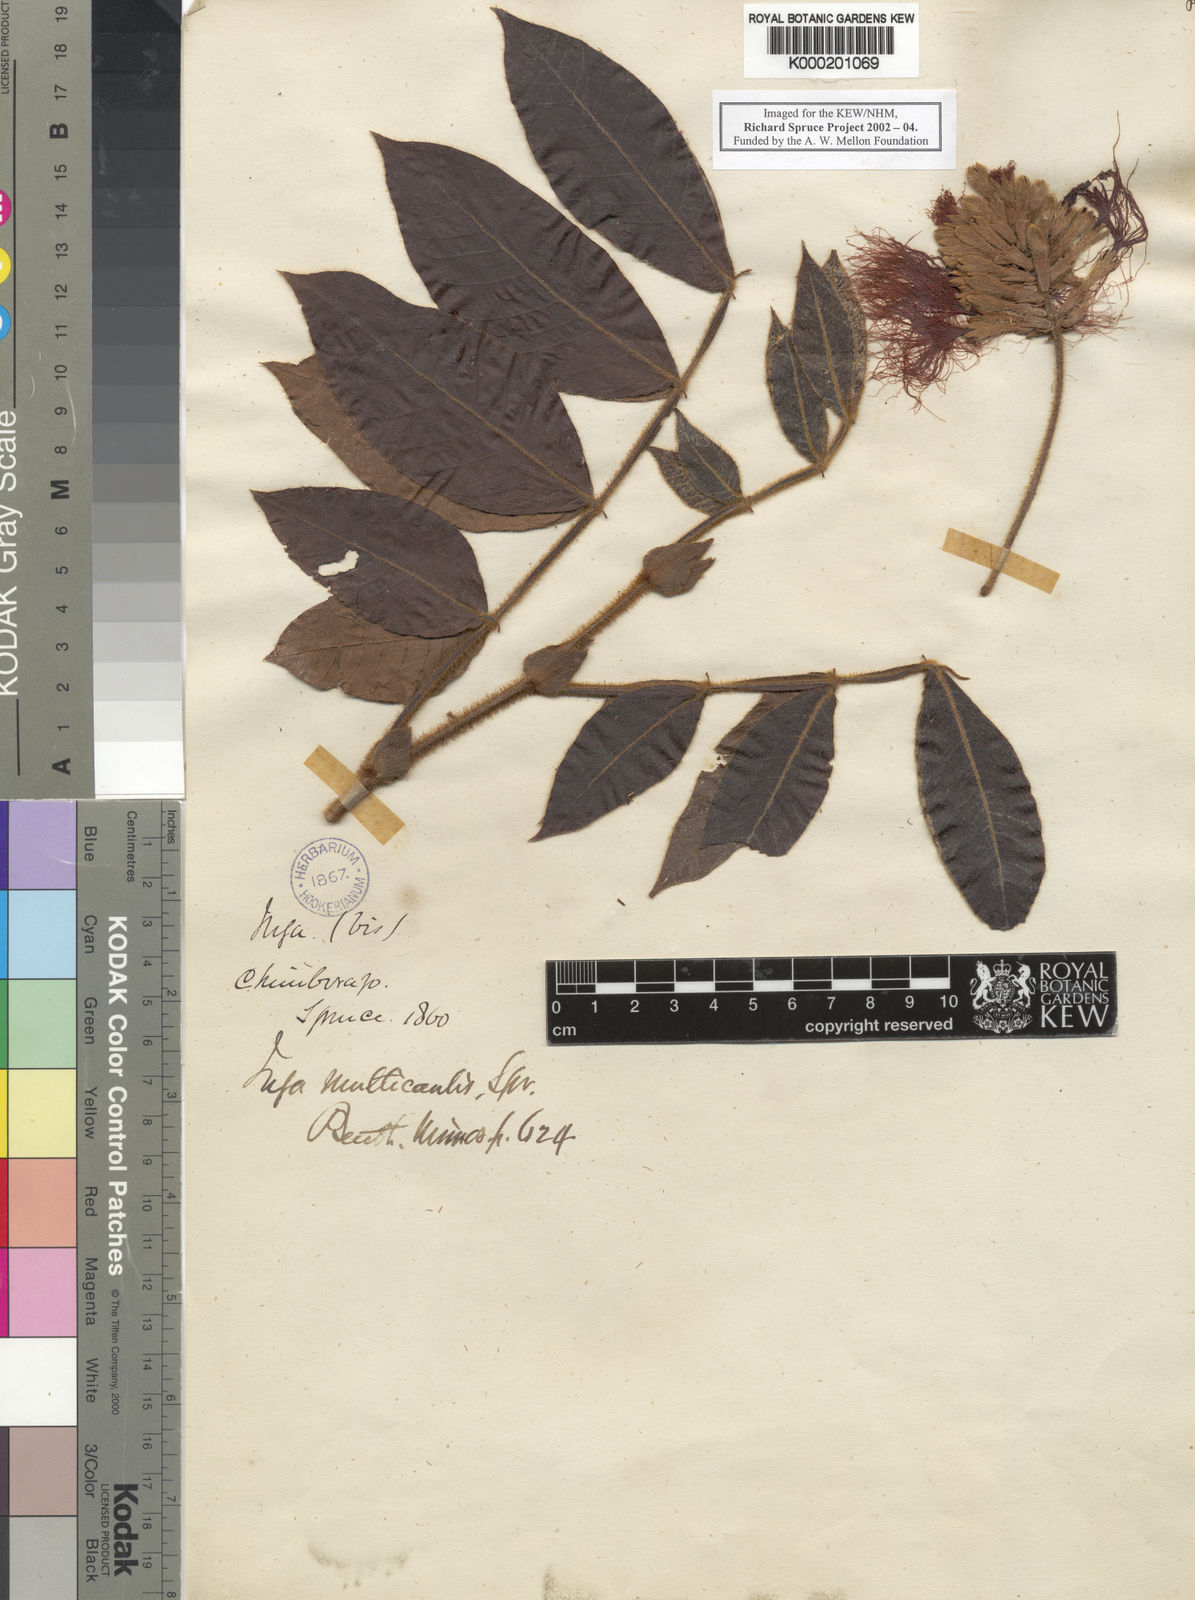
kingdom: Plantae
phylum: Tracheophyta
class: Magnoliopsida
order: Fabales
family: Fabaceae
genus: Inga
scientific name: Inga multicaulis
